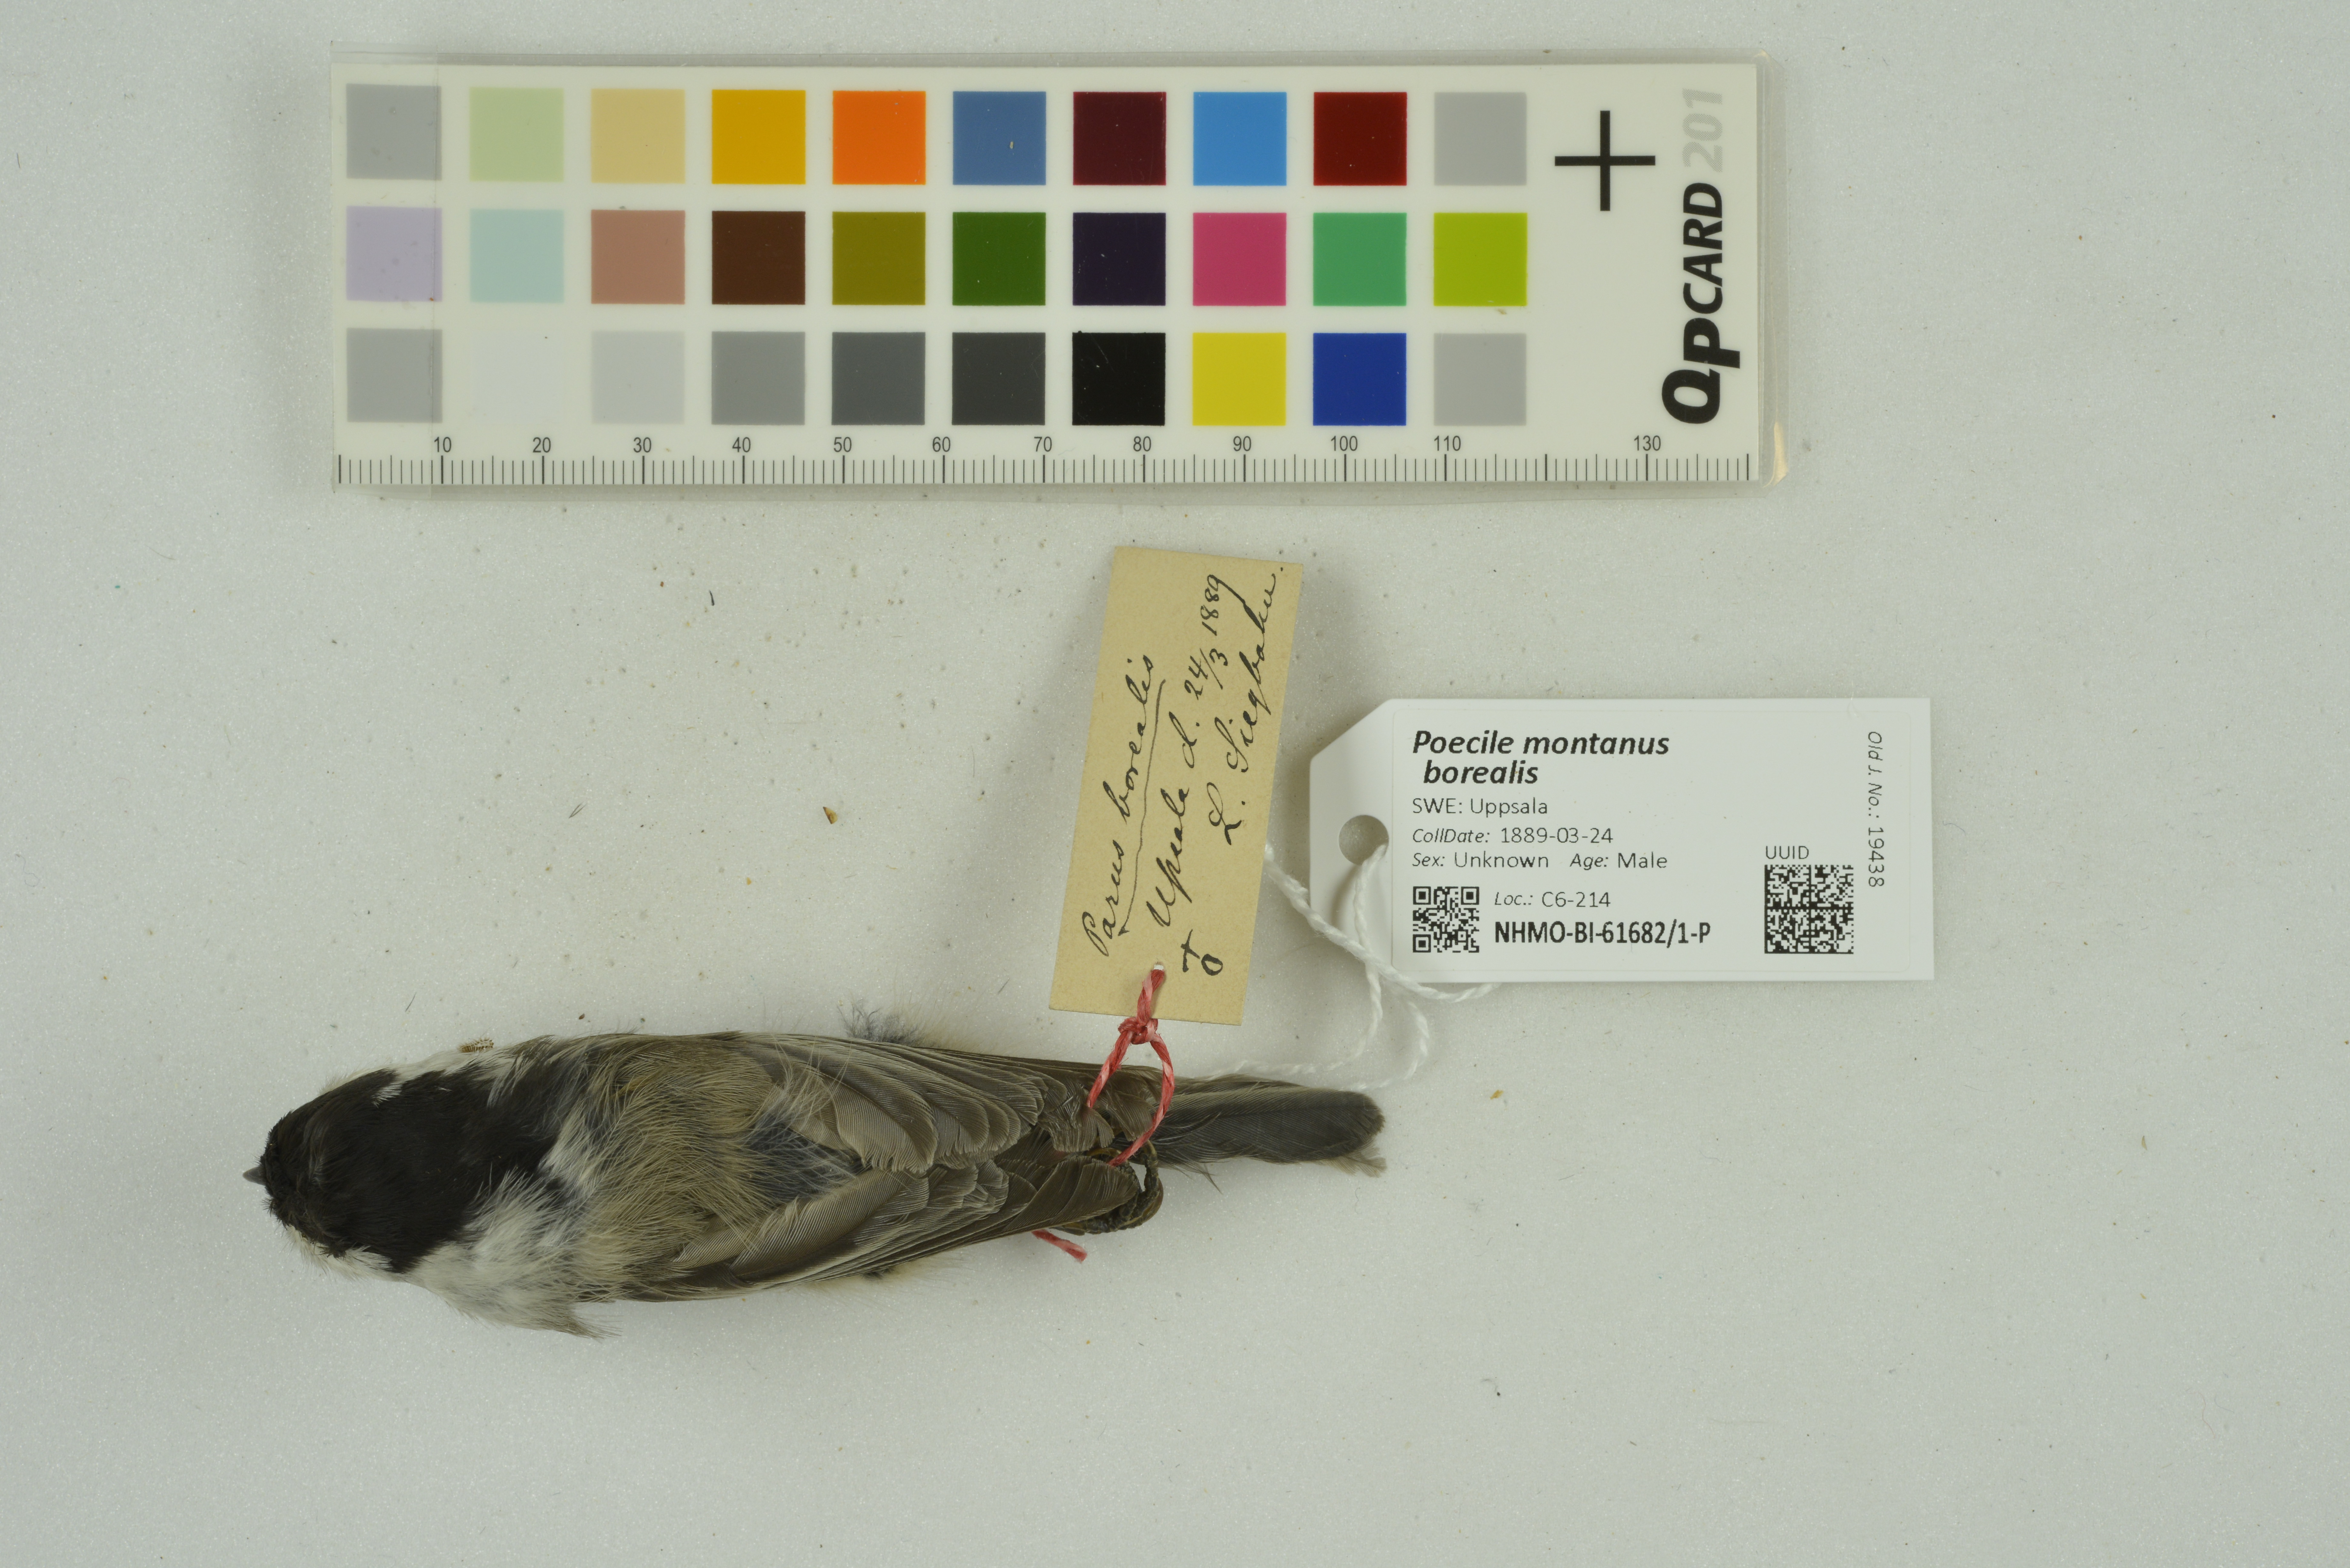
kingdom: Animalia
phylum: Chordata
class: Aves
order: Passeriformes
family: Paridae
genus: Poecile
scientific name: Poecile montanus
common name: Willow tit
